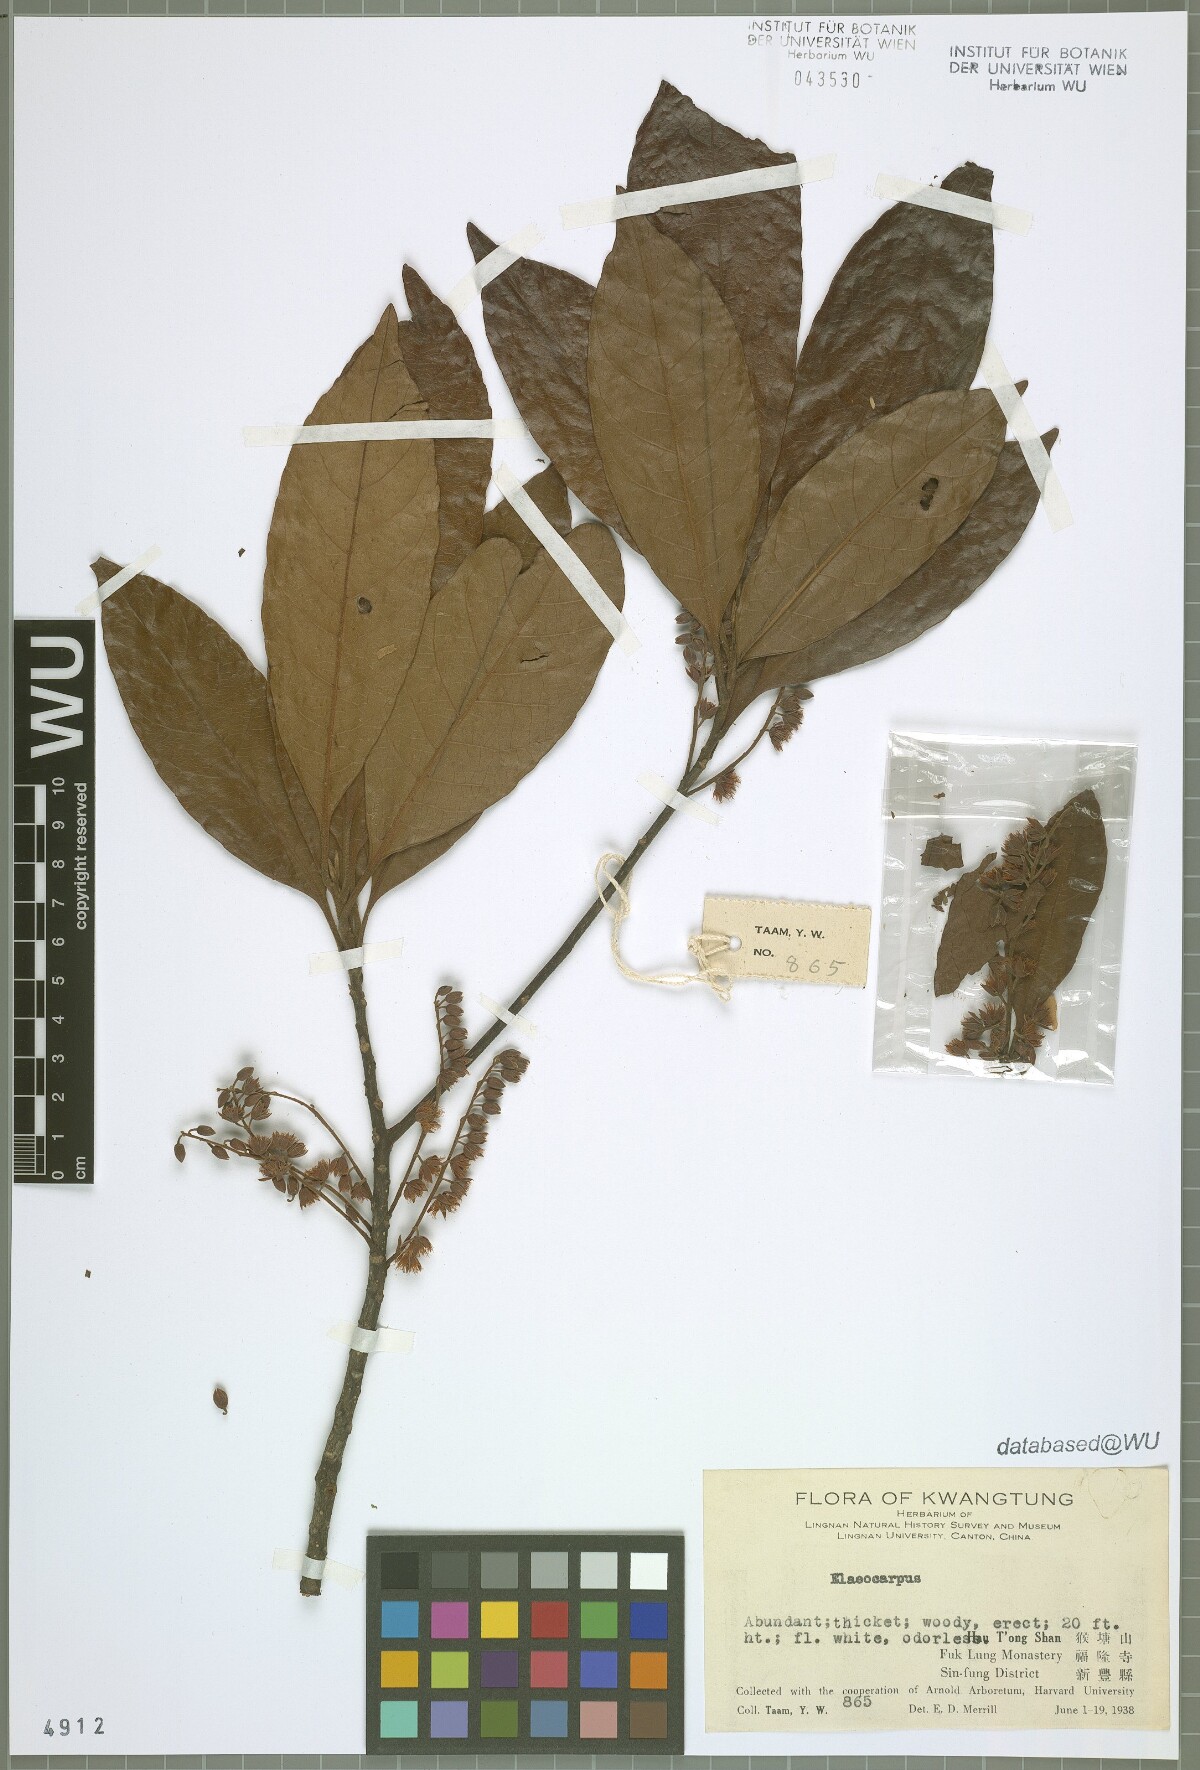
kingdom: Plantae
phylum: Tracheophyta
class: Magnoliopsida
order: Oxalidales
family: Elaeocarpaceae
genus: Elaeocarpus
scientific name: Elaeocarpus
